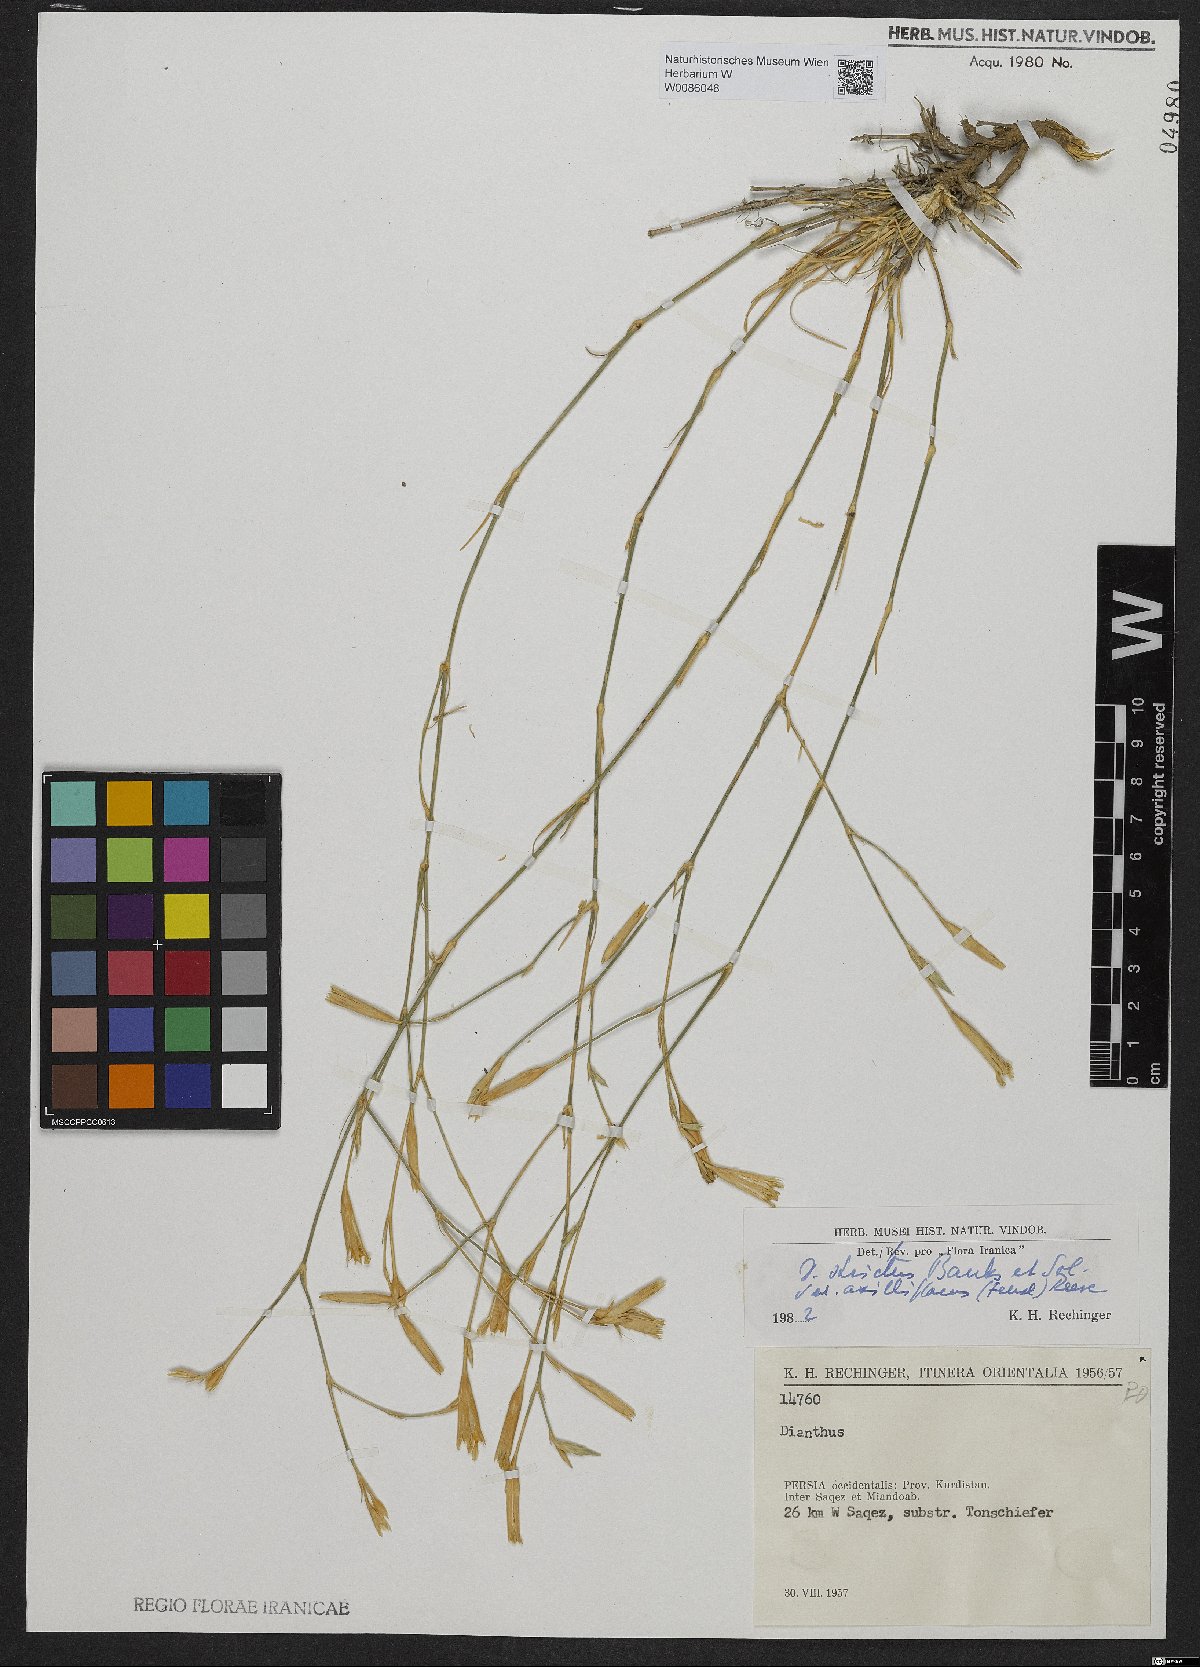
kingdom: Plantae
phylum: Tracheophyta
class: Magnoliopsida
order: Caryophyllales
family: Caryophyllaceae
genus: Dianthus
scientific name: Dianthus strictus
